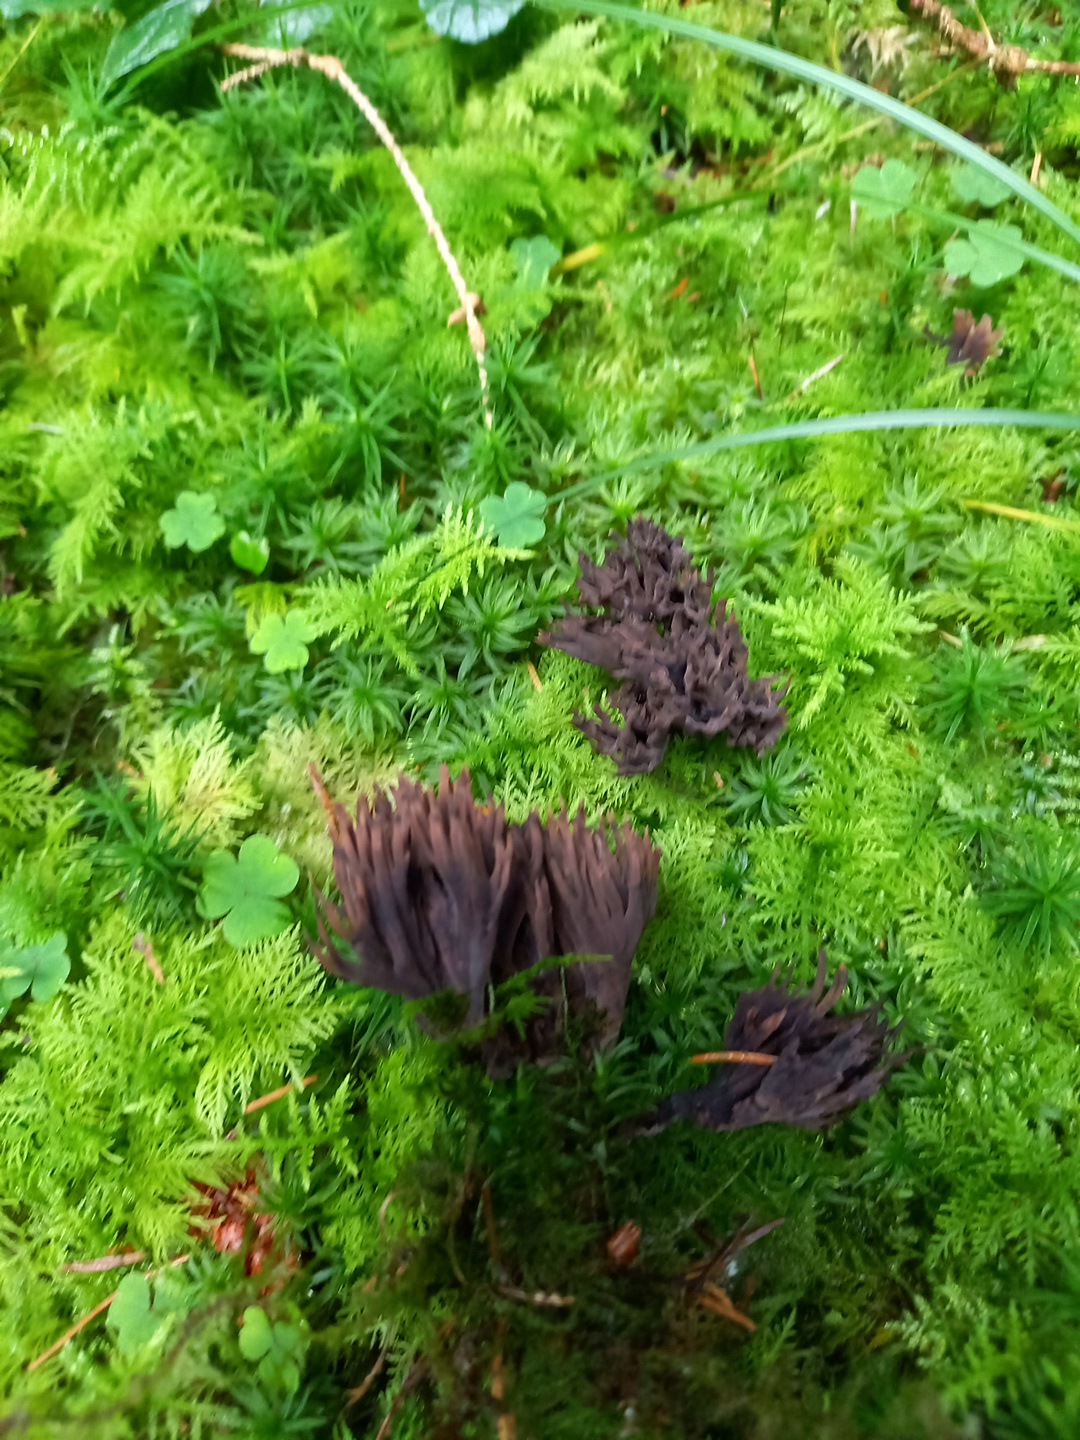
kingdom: Fungi
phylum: Basidiomycota
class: Agaricomycetes
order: Thelephorales
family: Thelephoraceae
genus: Thelephora
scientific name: Thelephora palmata
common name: grenet frynsesvamp
